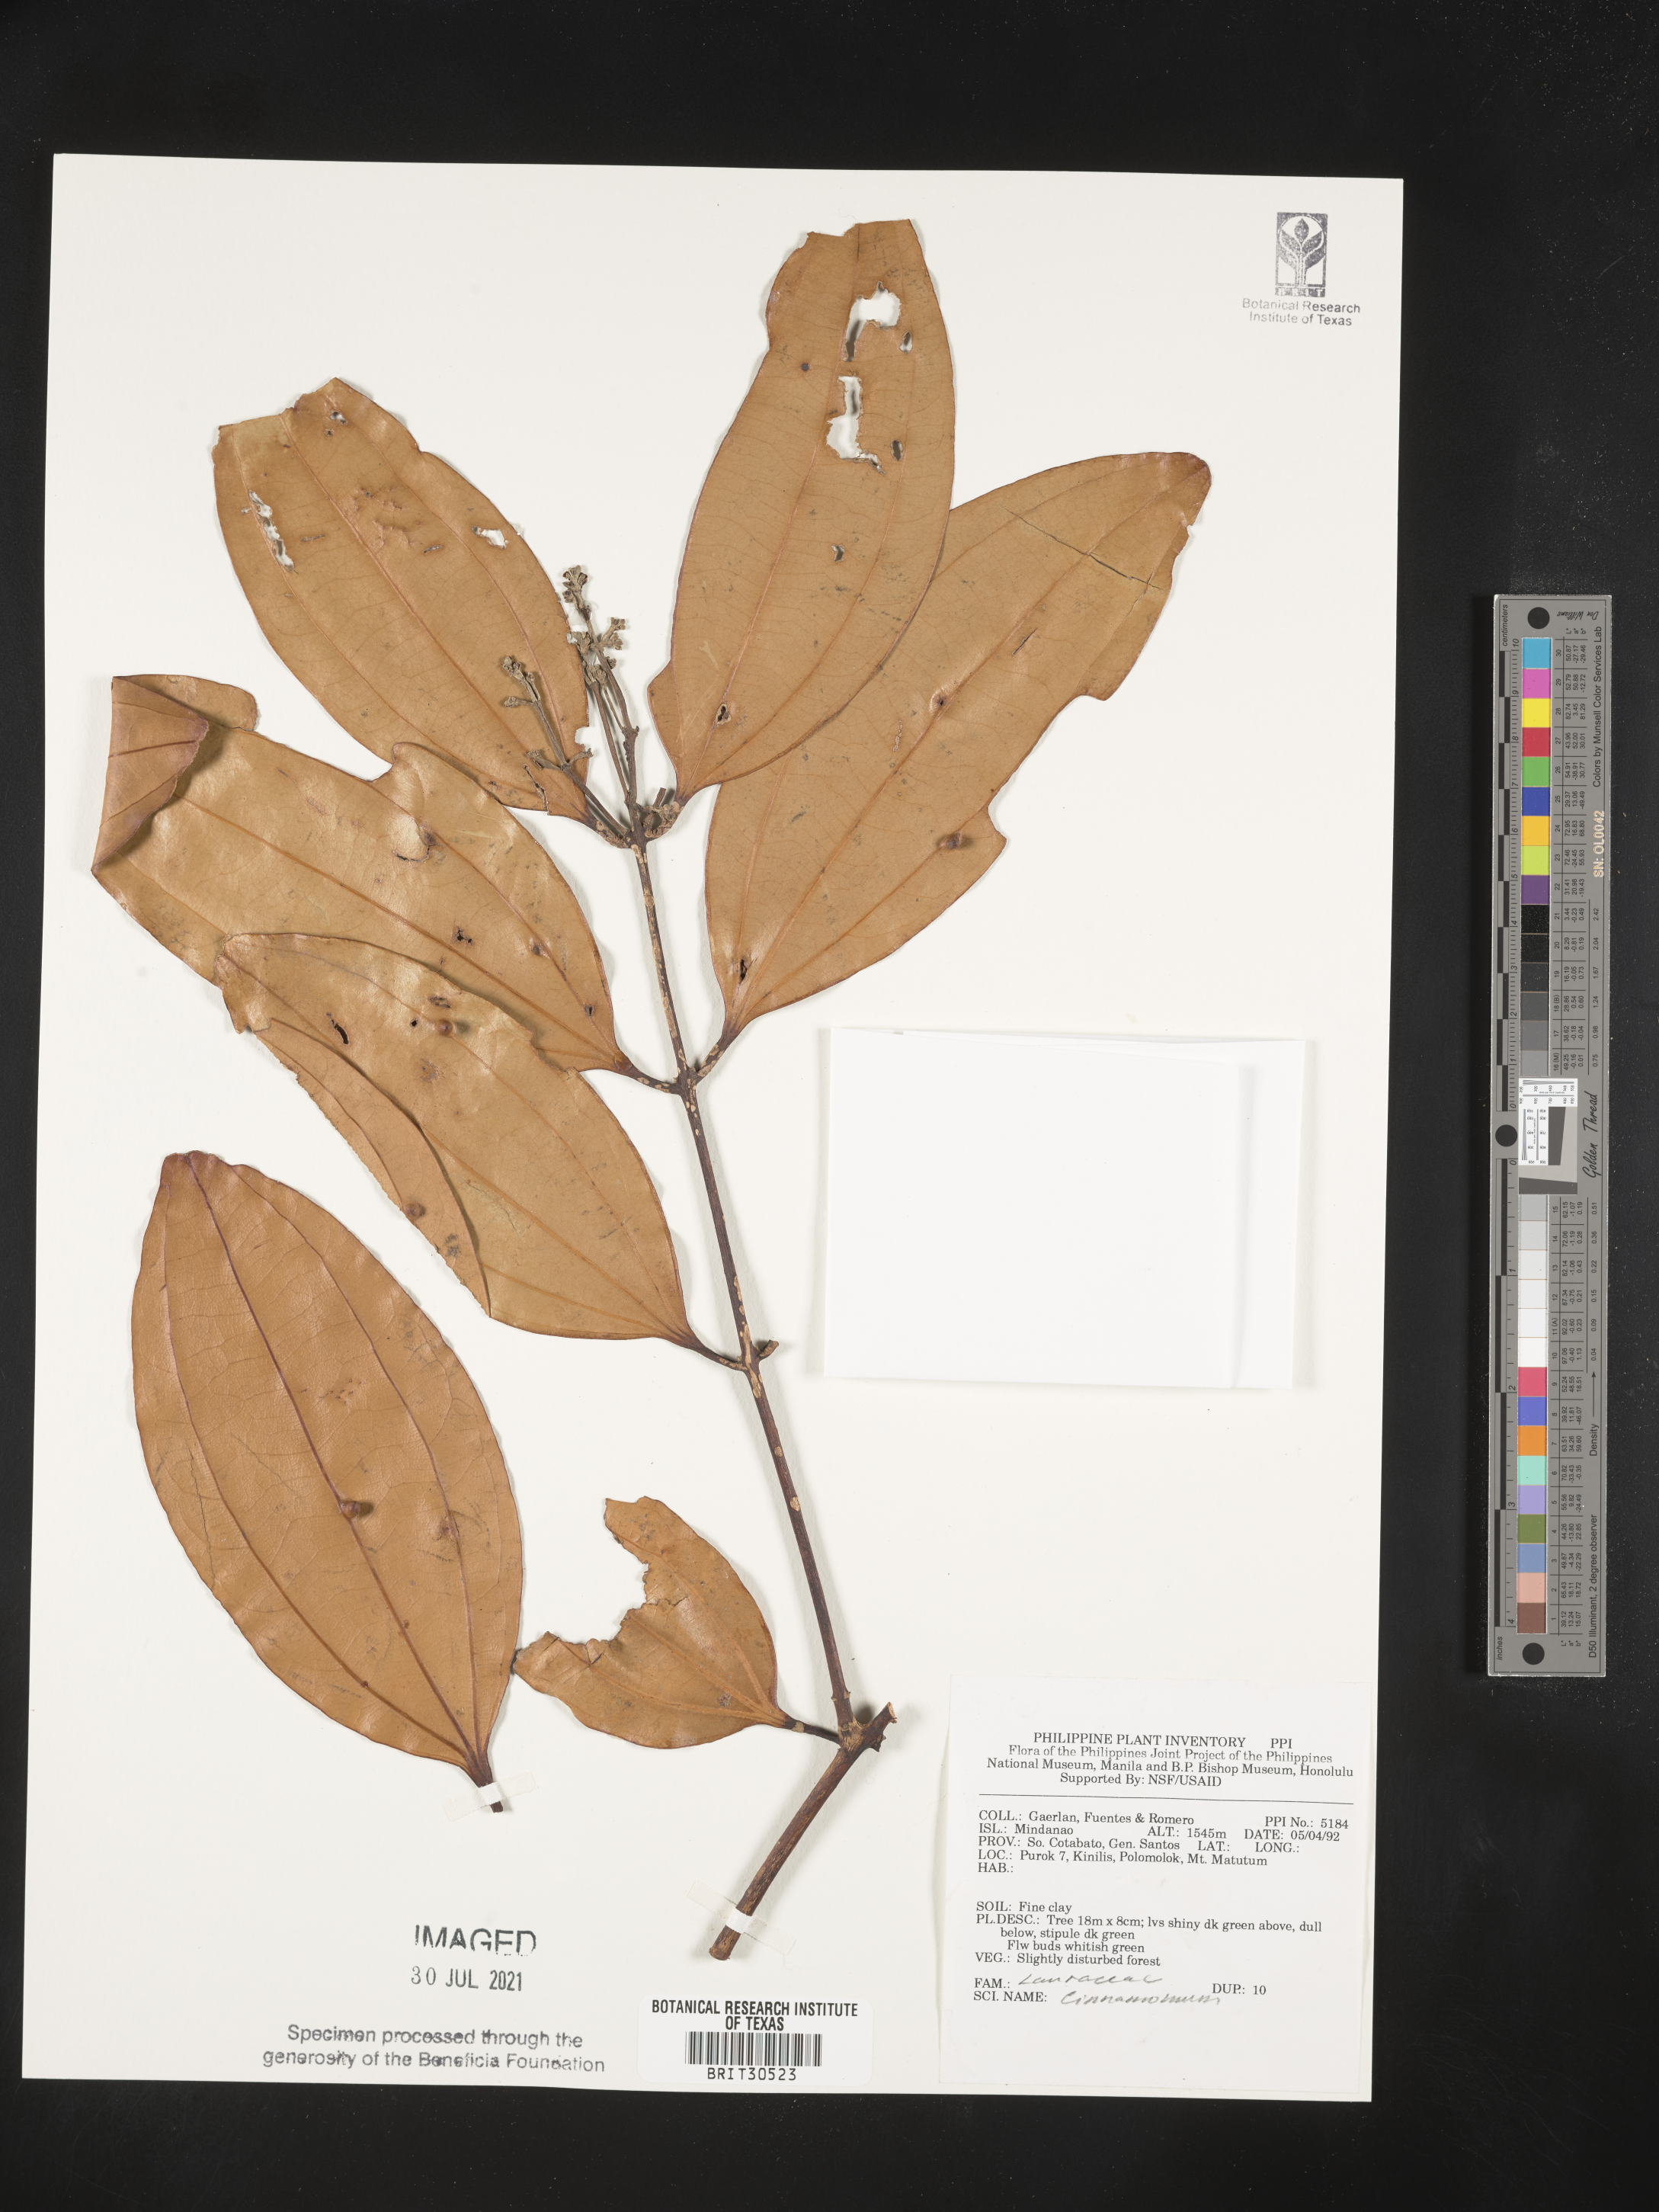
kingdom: Plantae
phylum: Tracheophyta
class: Magnoliopsida
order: Laurales
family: Lauraceae
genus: Cinnamomum
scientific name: Cinnamomum
